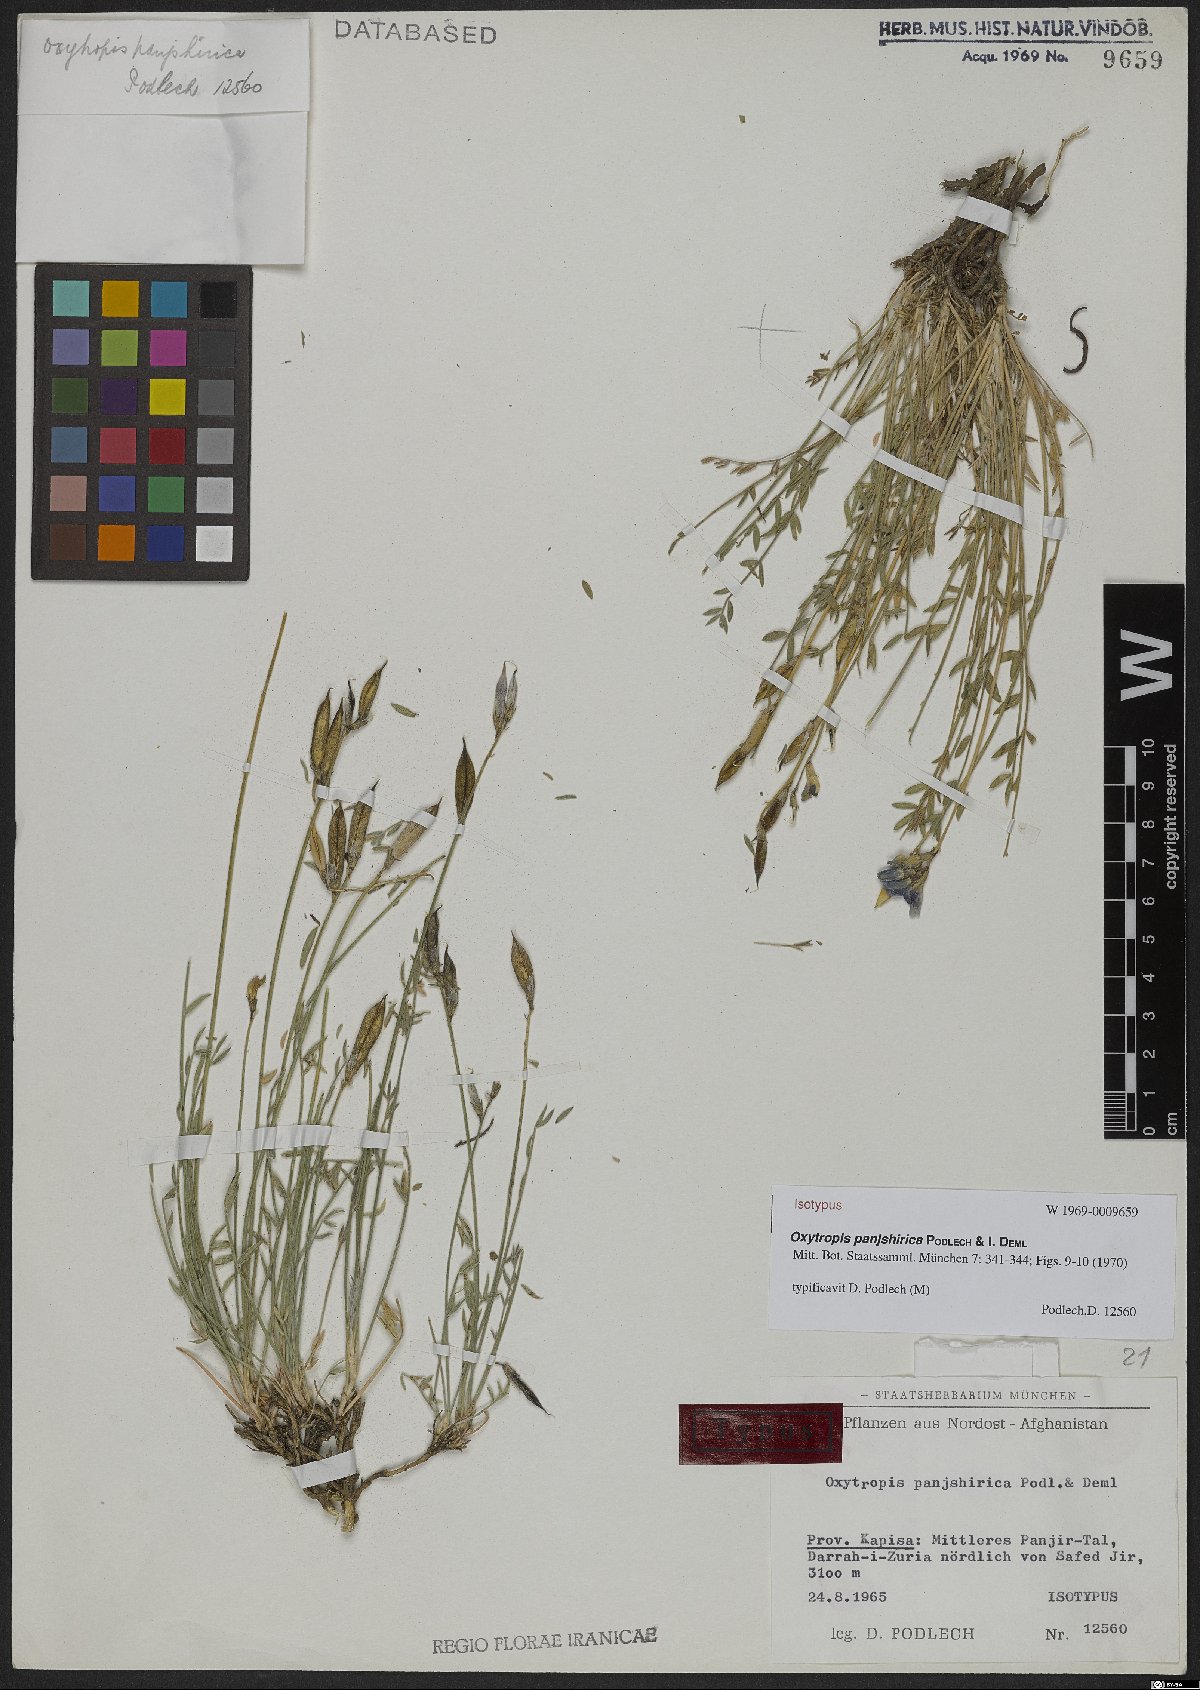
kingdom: Plantae
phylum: Tracheophyta
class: Magnoliopsida
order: Fabales
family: Fabaceae
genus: Oxytropis
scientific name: Oxytropis panjshirica
